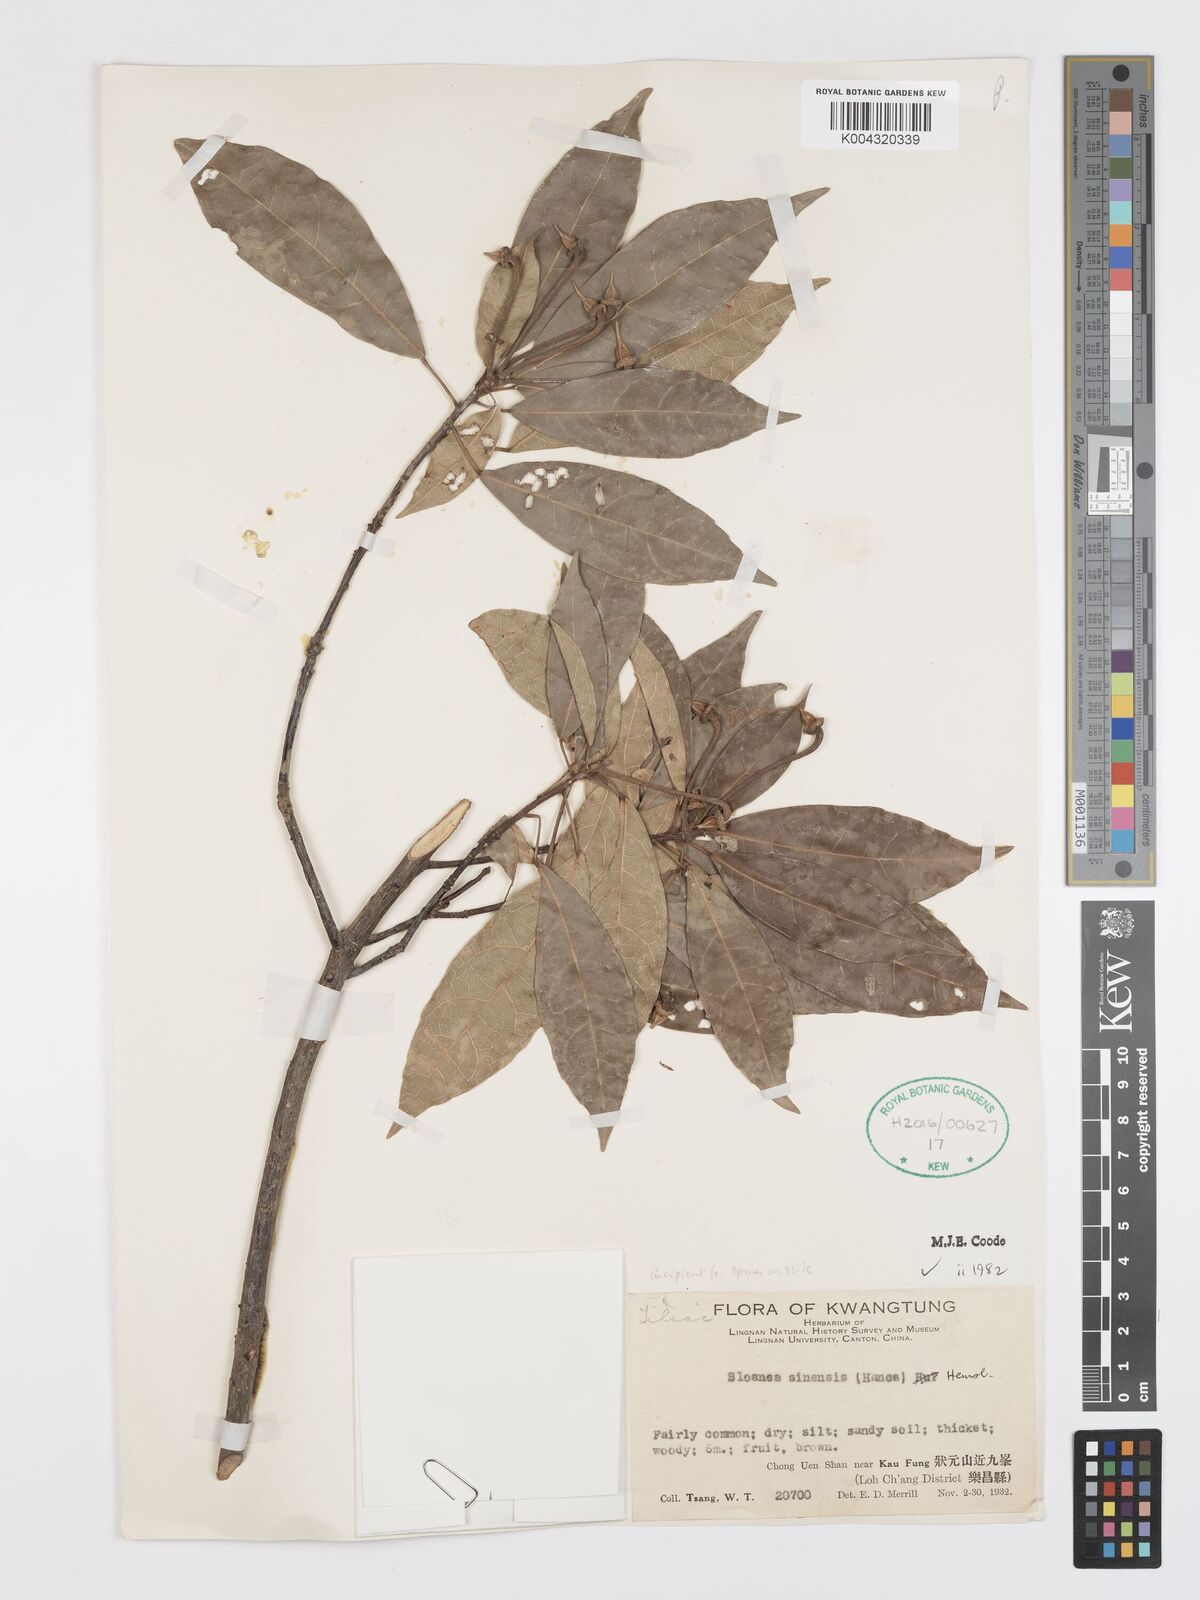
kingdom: Plantae
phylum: Tracheophyta
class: Magnoliopsida
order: Oxalidales
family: Elaeocarpaceae
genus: Sloanea
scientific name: Sloanea sinensis
